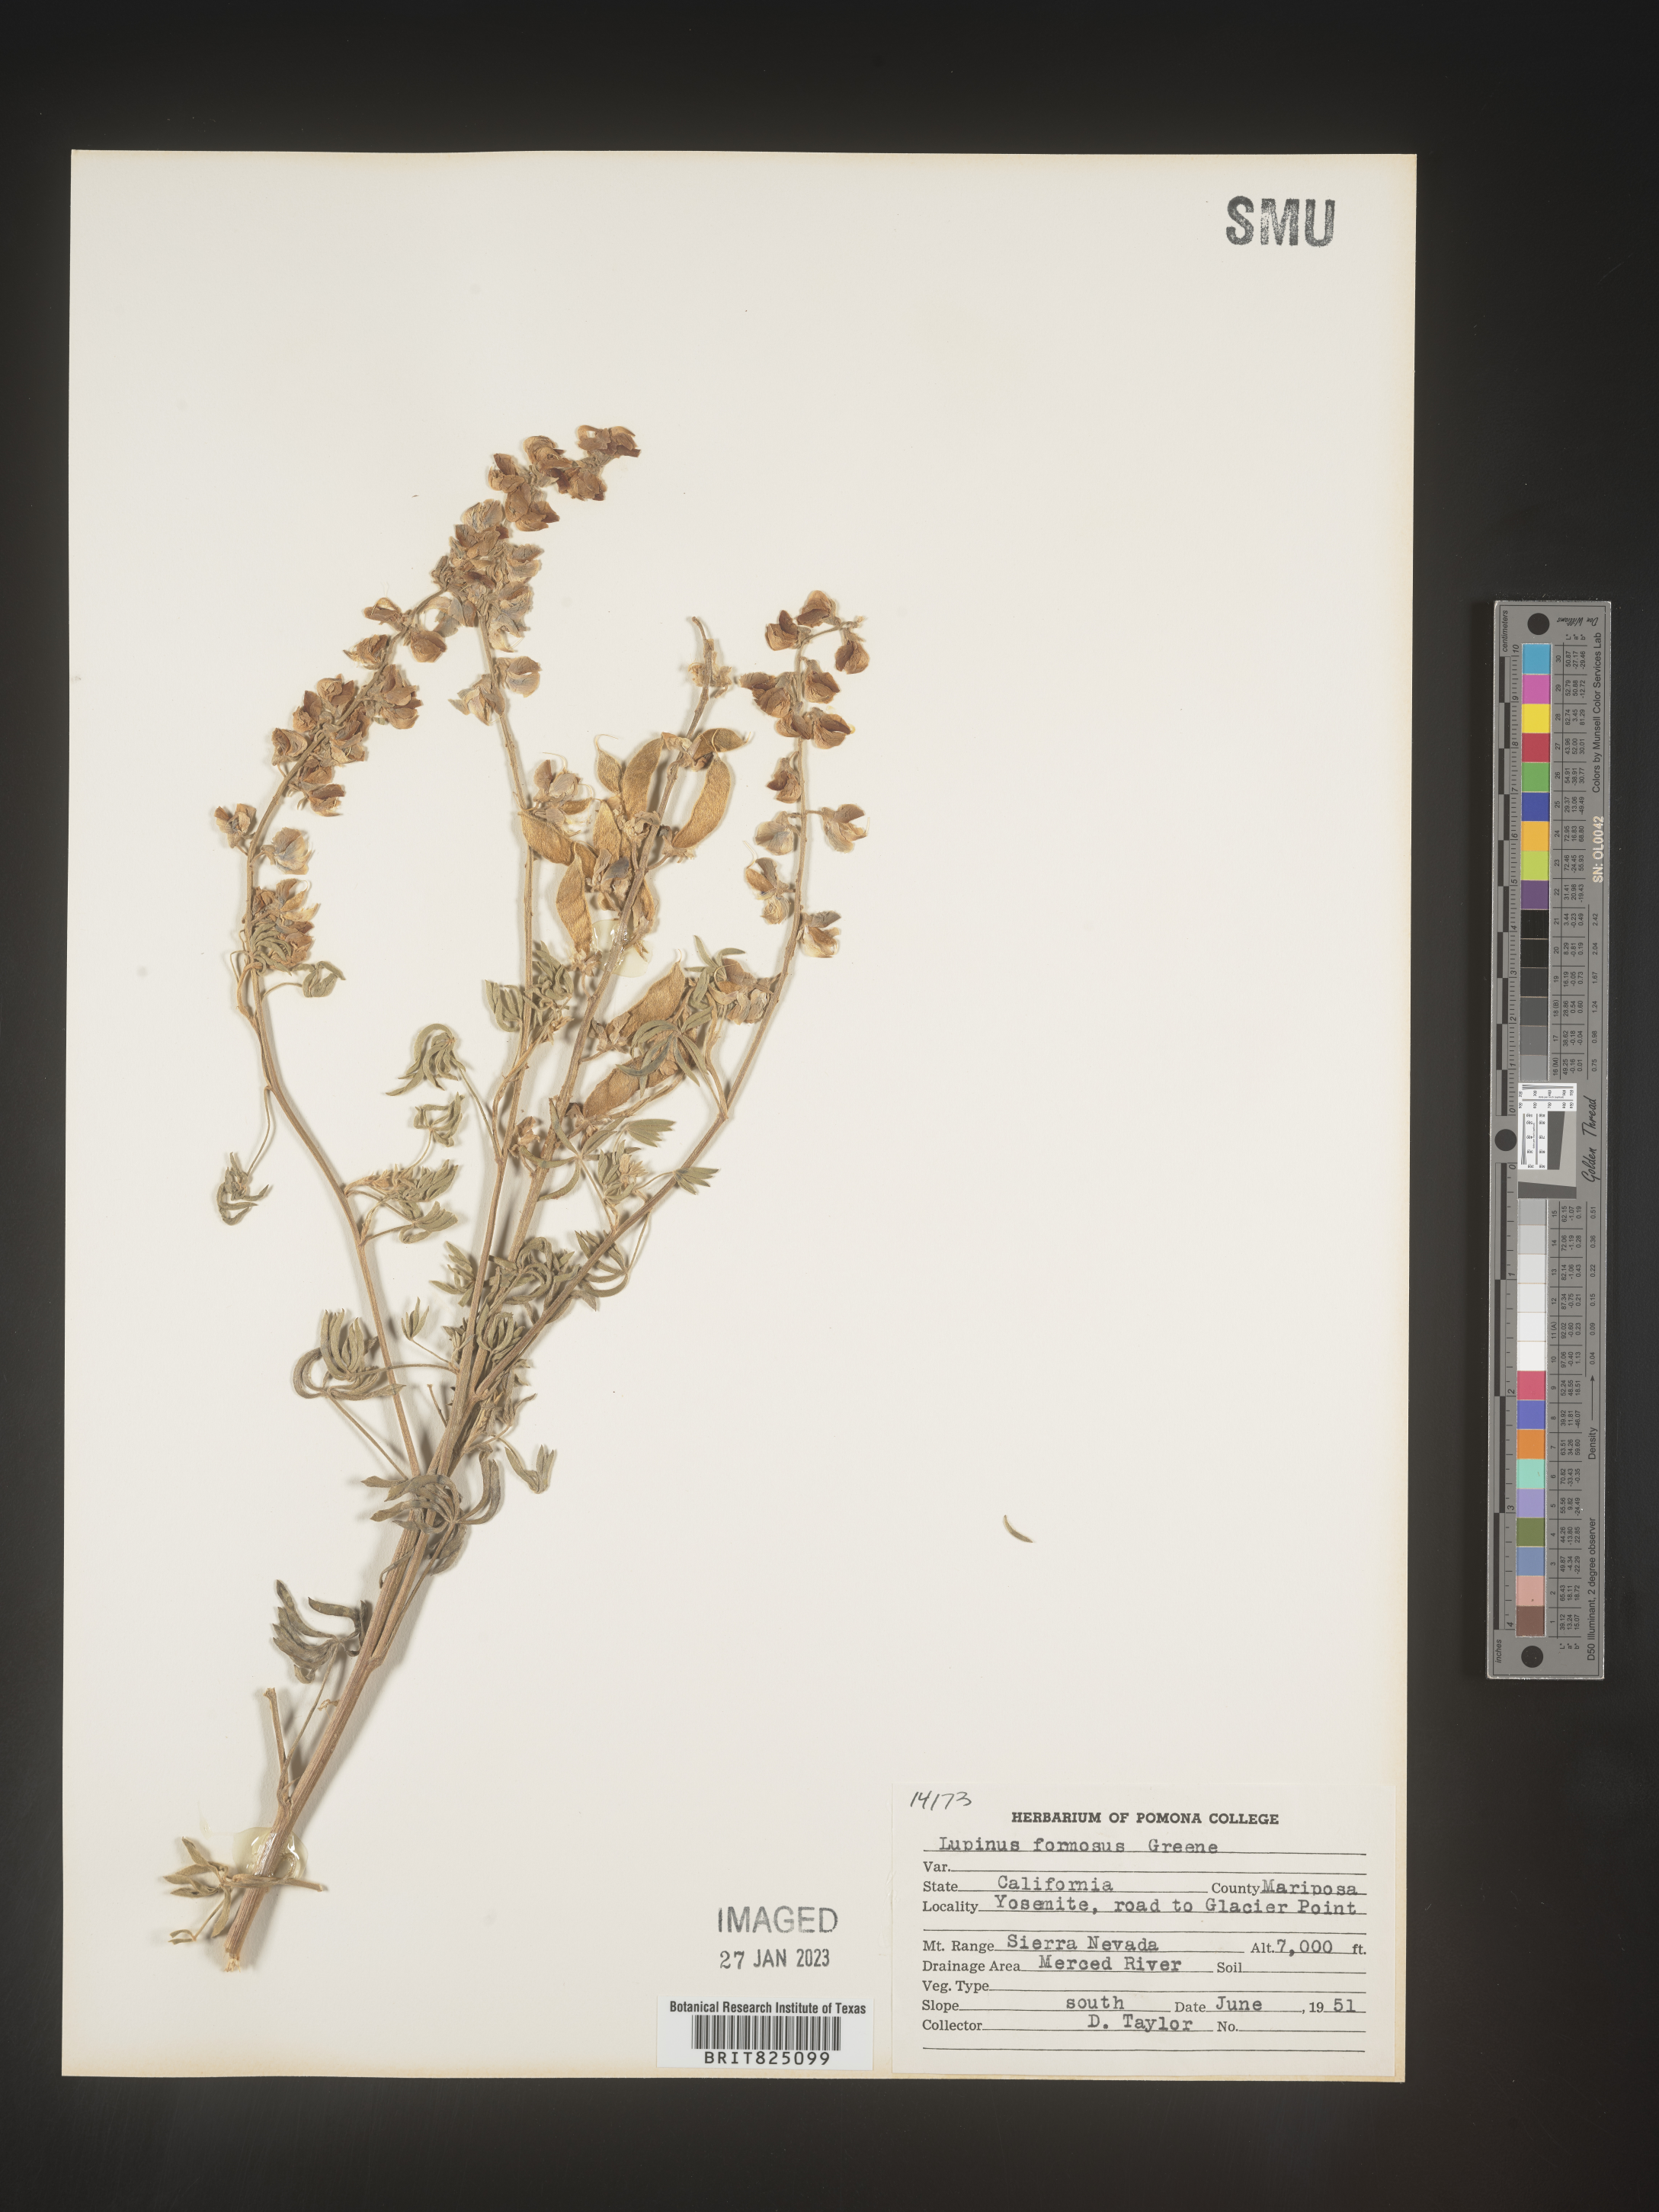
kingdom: Plantae
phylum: Tracheophyta
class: Magnoliopsida
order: Fabales
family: Fabaceae
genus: Lupinus
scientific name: Lupinus
